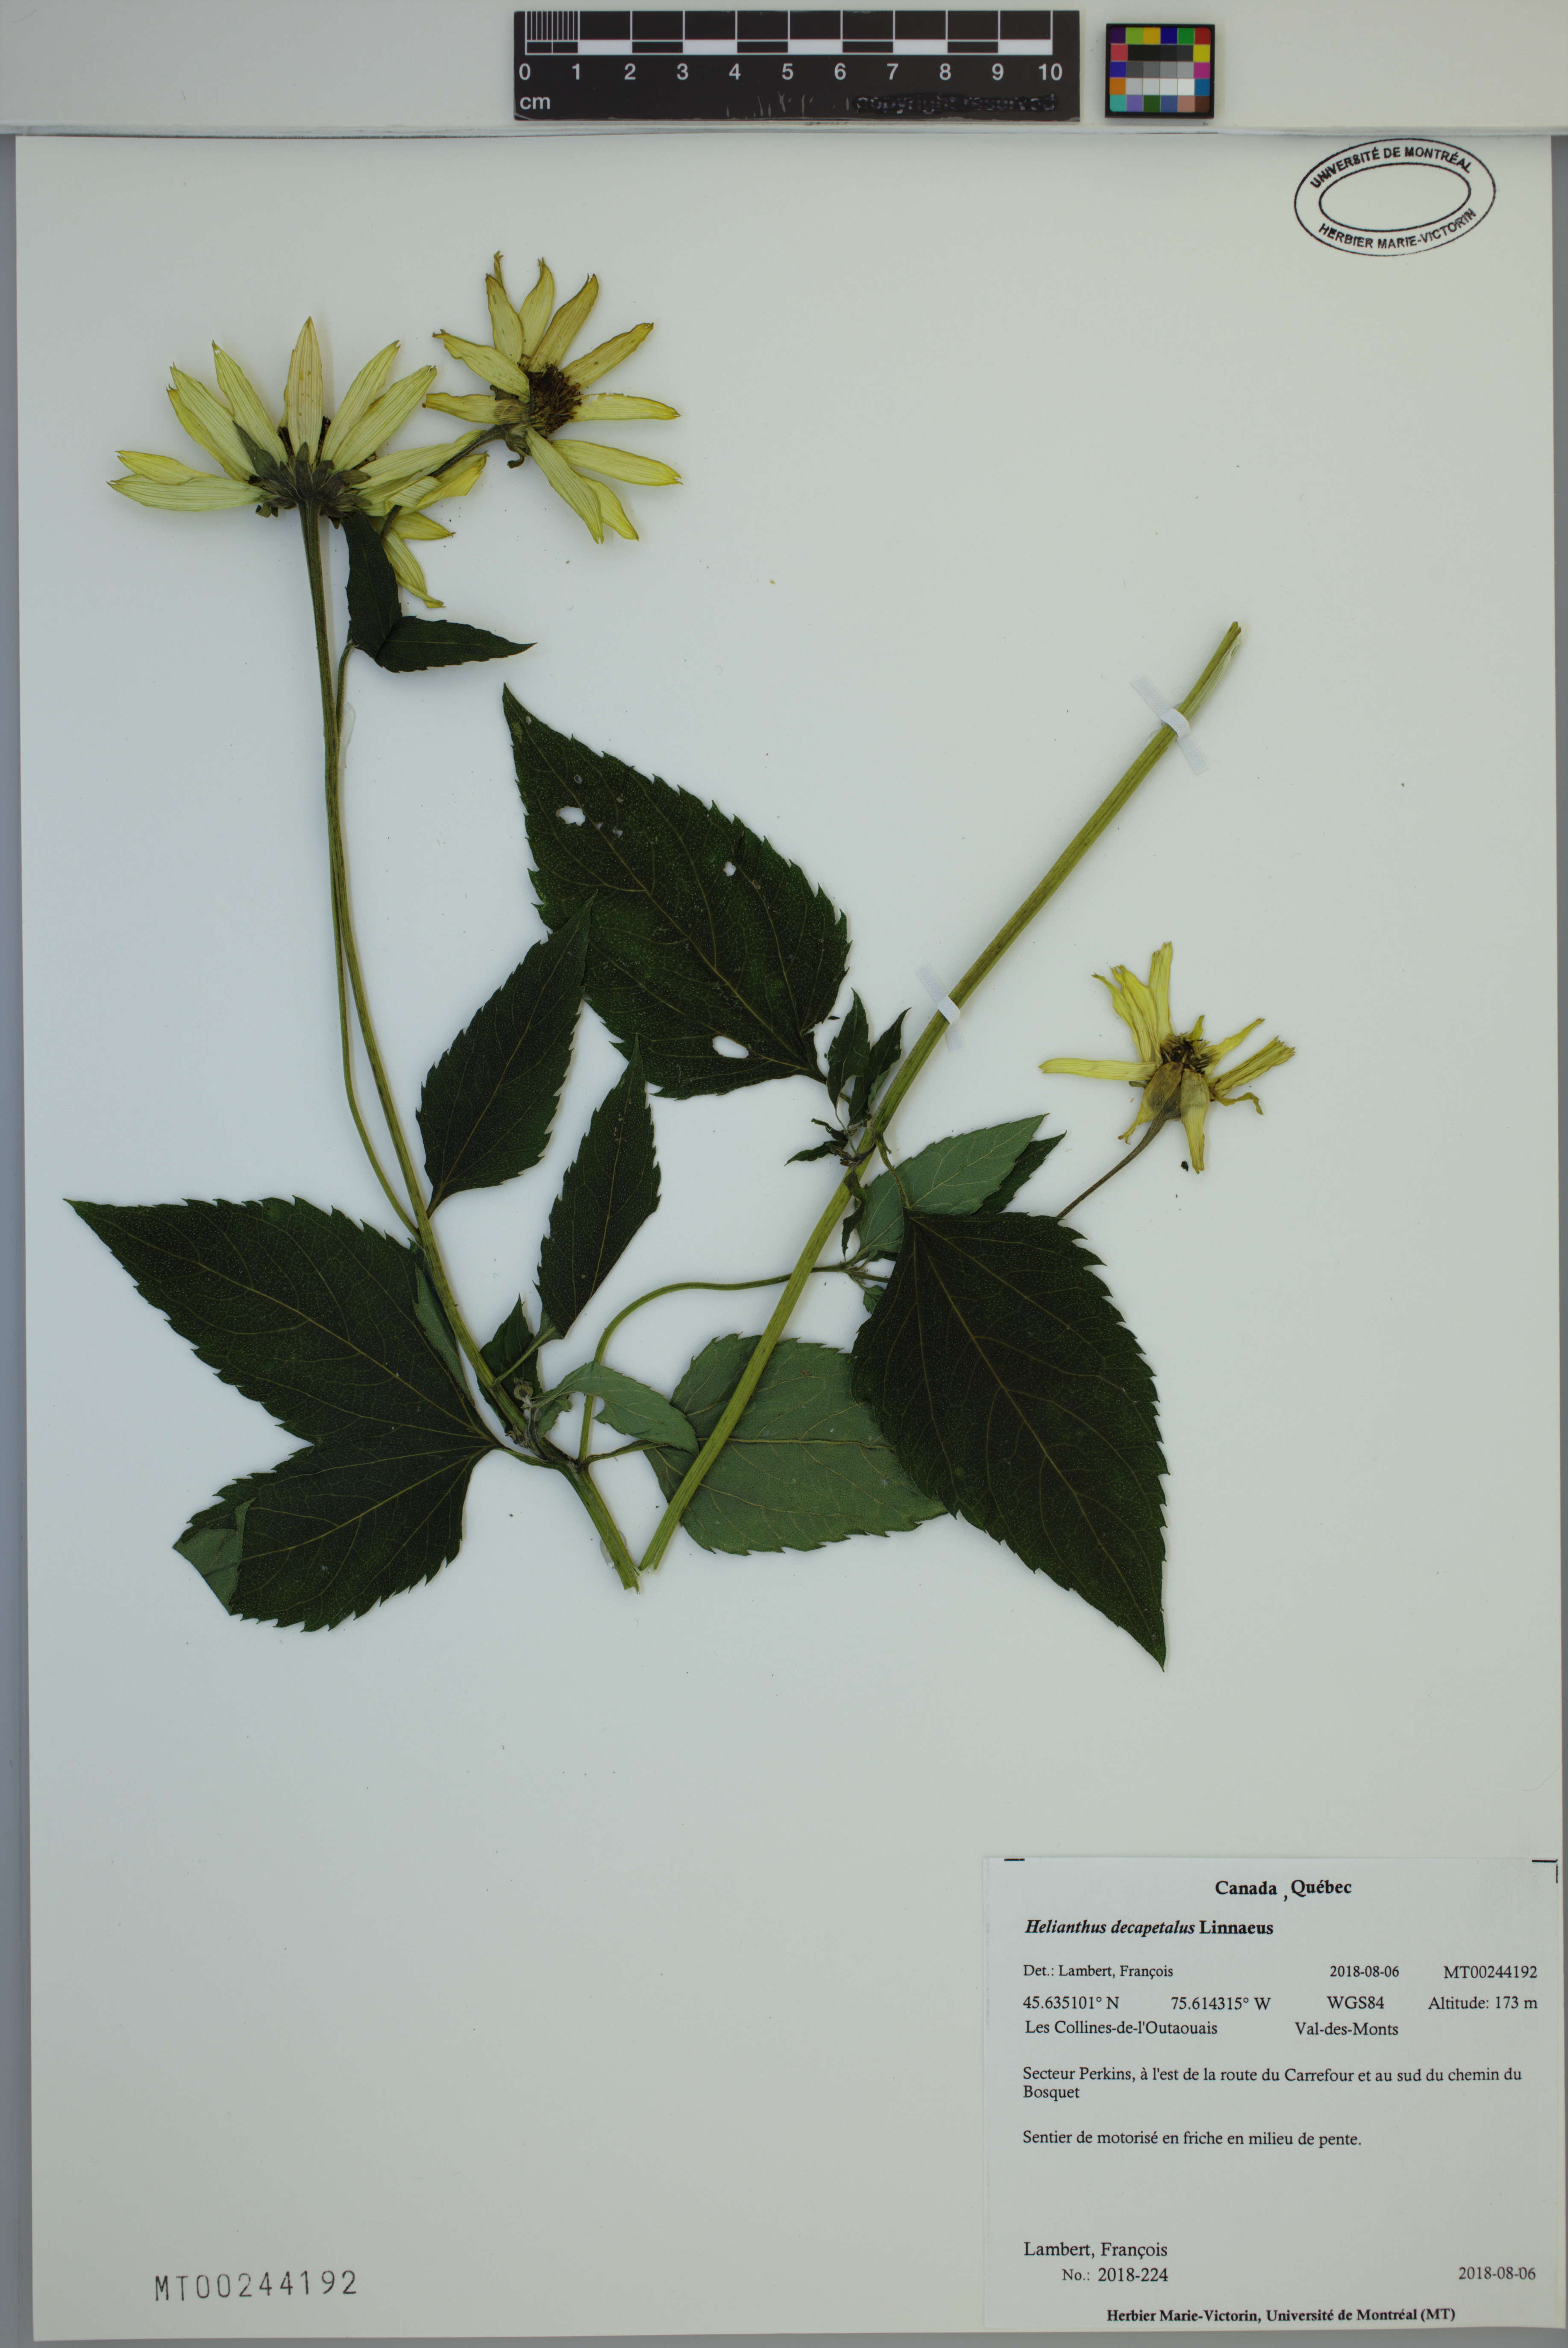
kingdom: Plantae
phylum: Tracheophyta
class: Magnoliopsida
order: Asterales
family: Asteraceae
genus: Helianthus
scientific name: Helianthus decapetalus
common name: Thin-leaved sunflower
